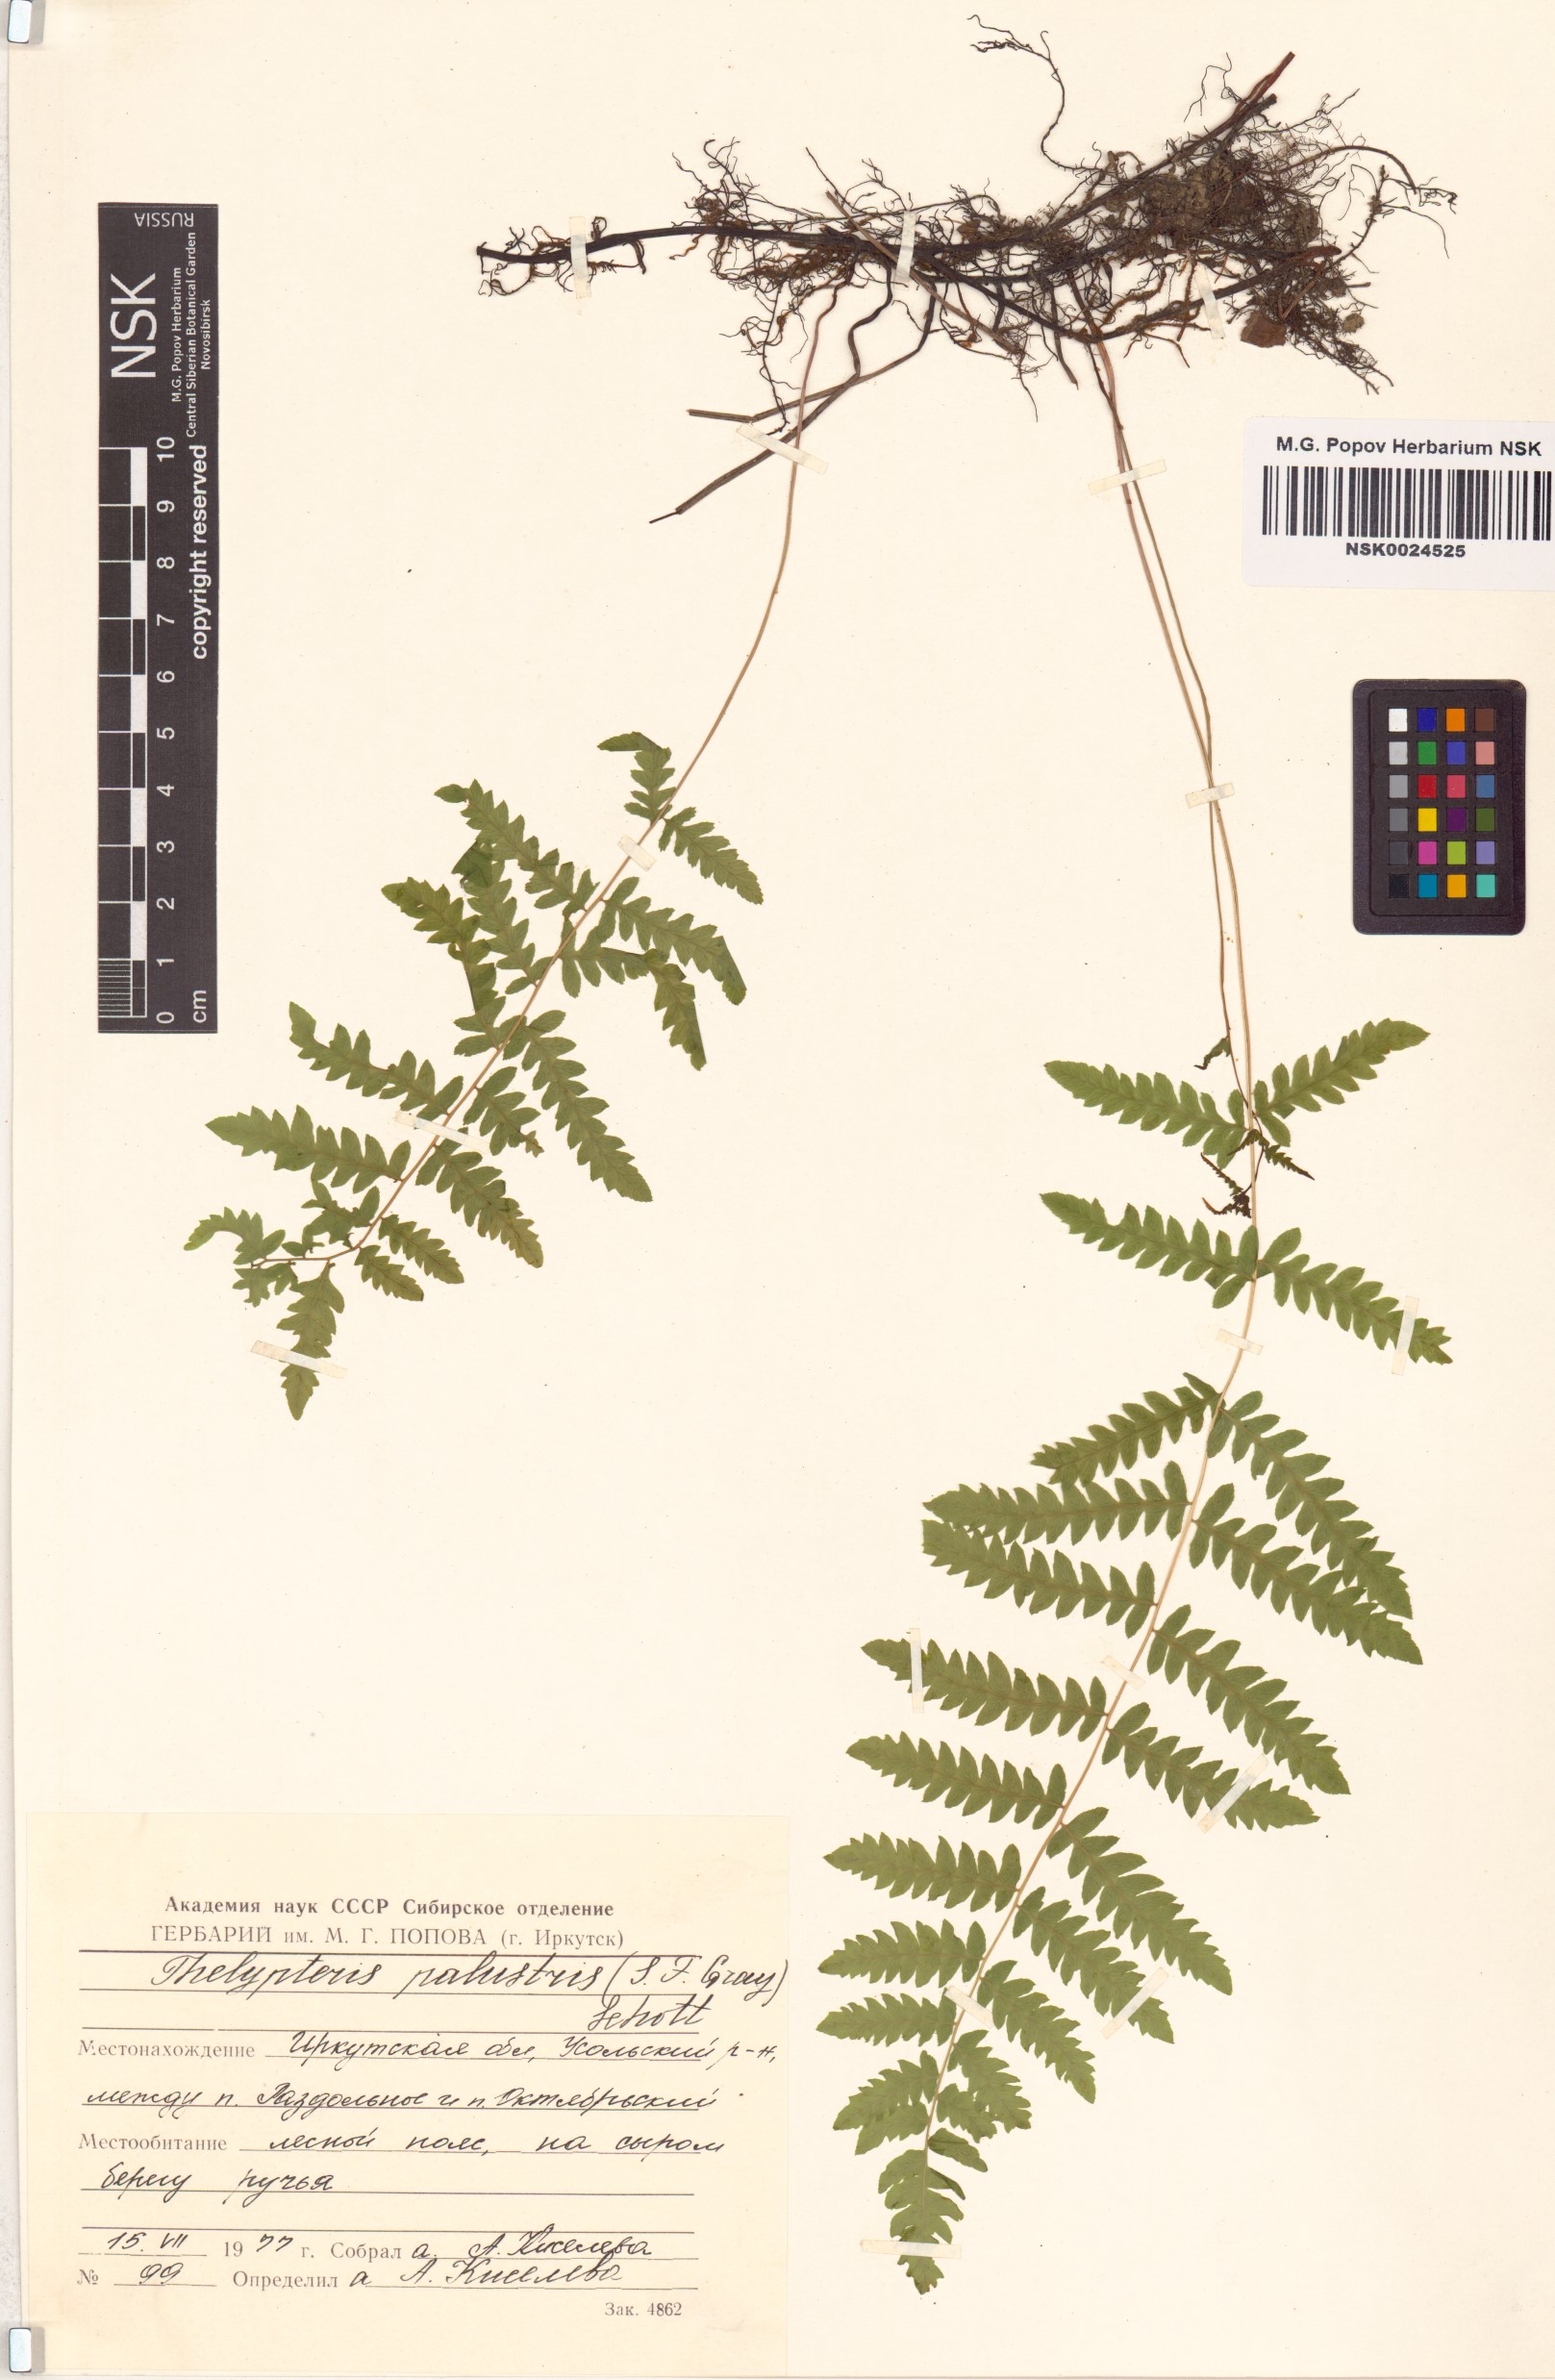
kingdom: Plantae
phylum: Tracheophyta
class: Polypodiopsida
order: Polypodiales
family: Thelypteridaceae
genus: Thelypteris
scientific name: Thelypteris palustris
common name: Marsh fern
